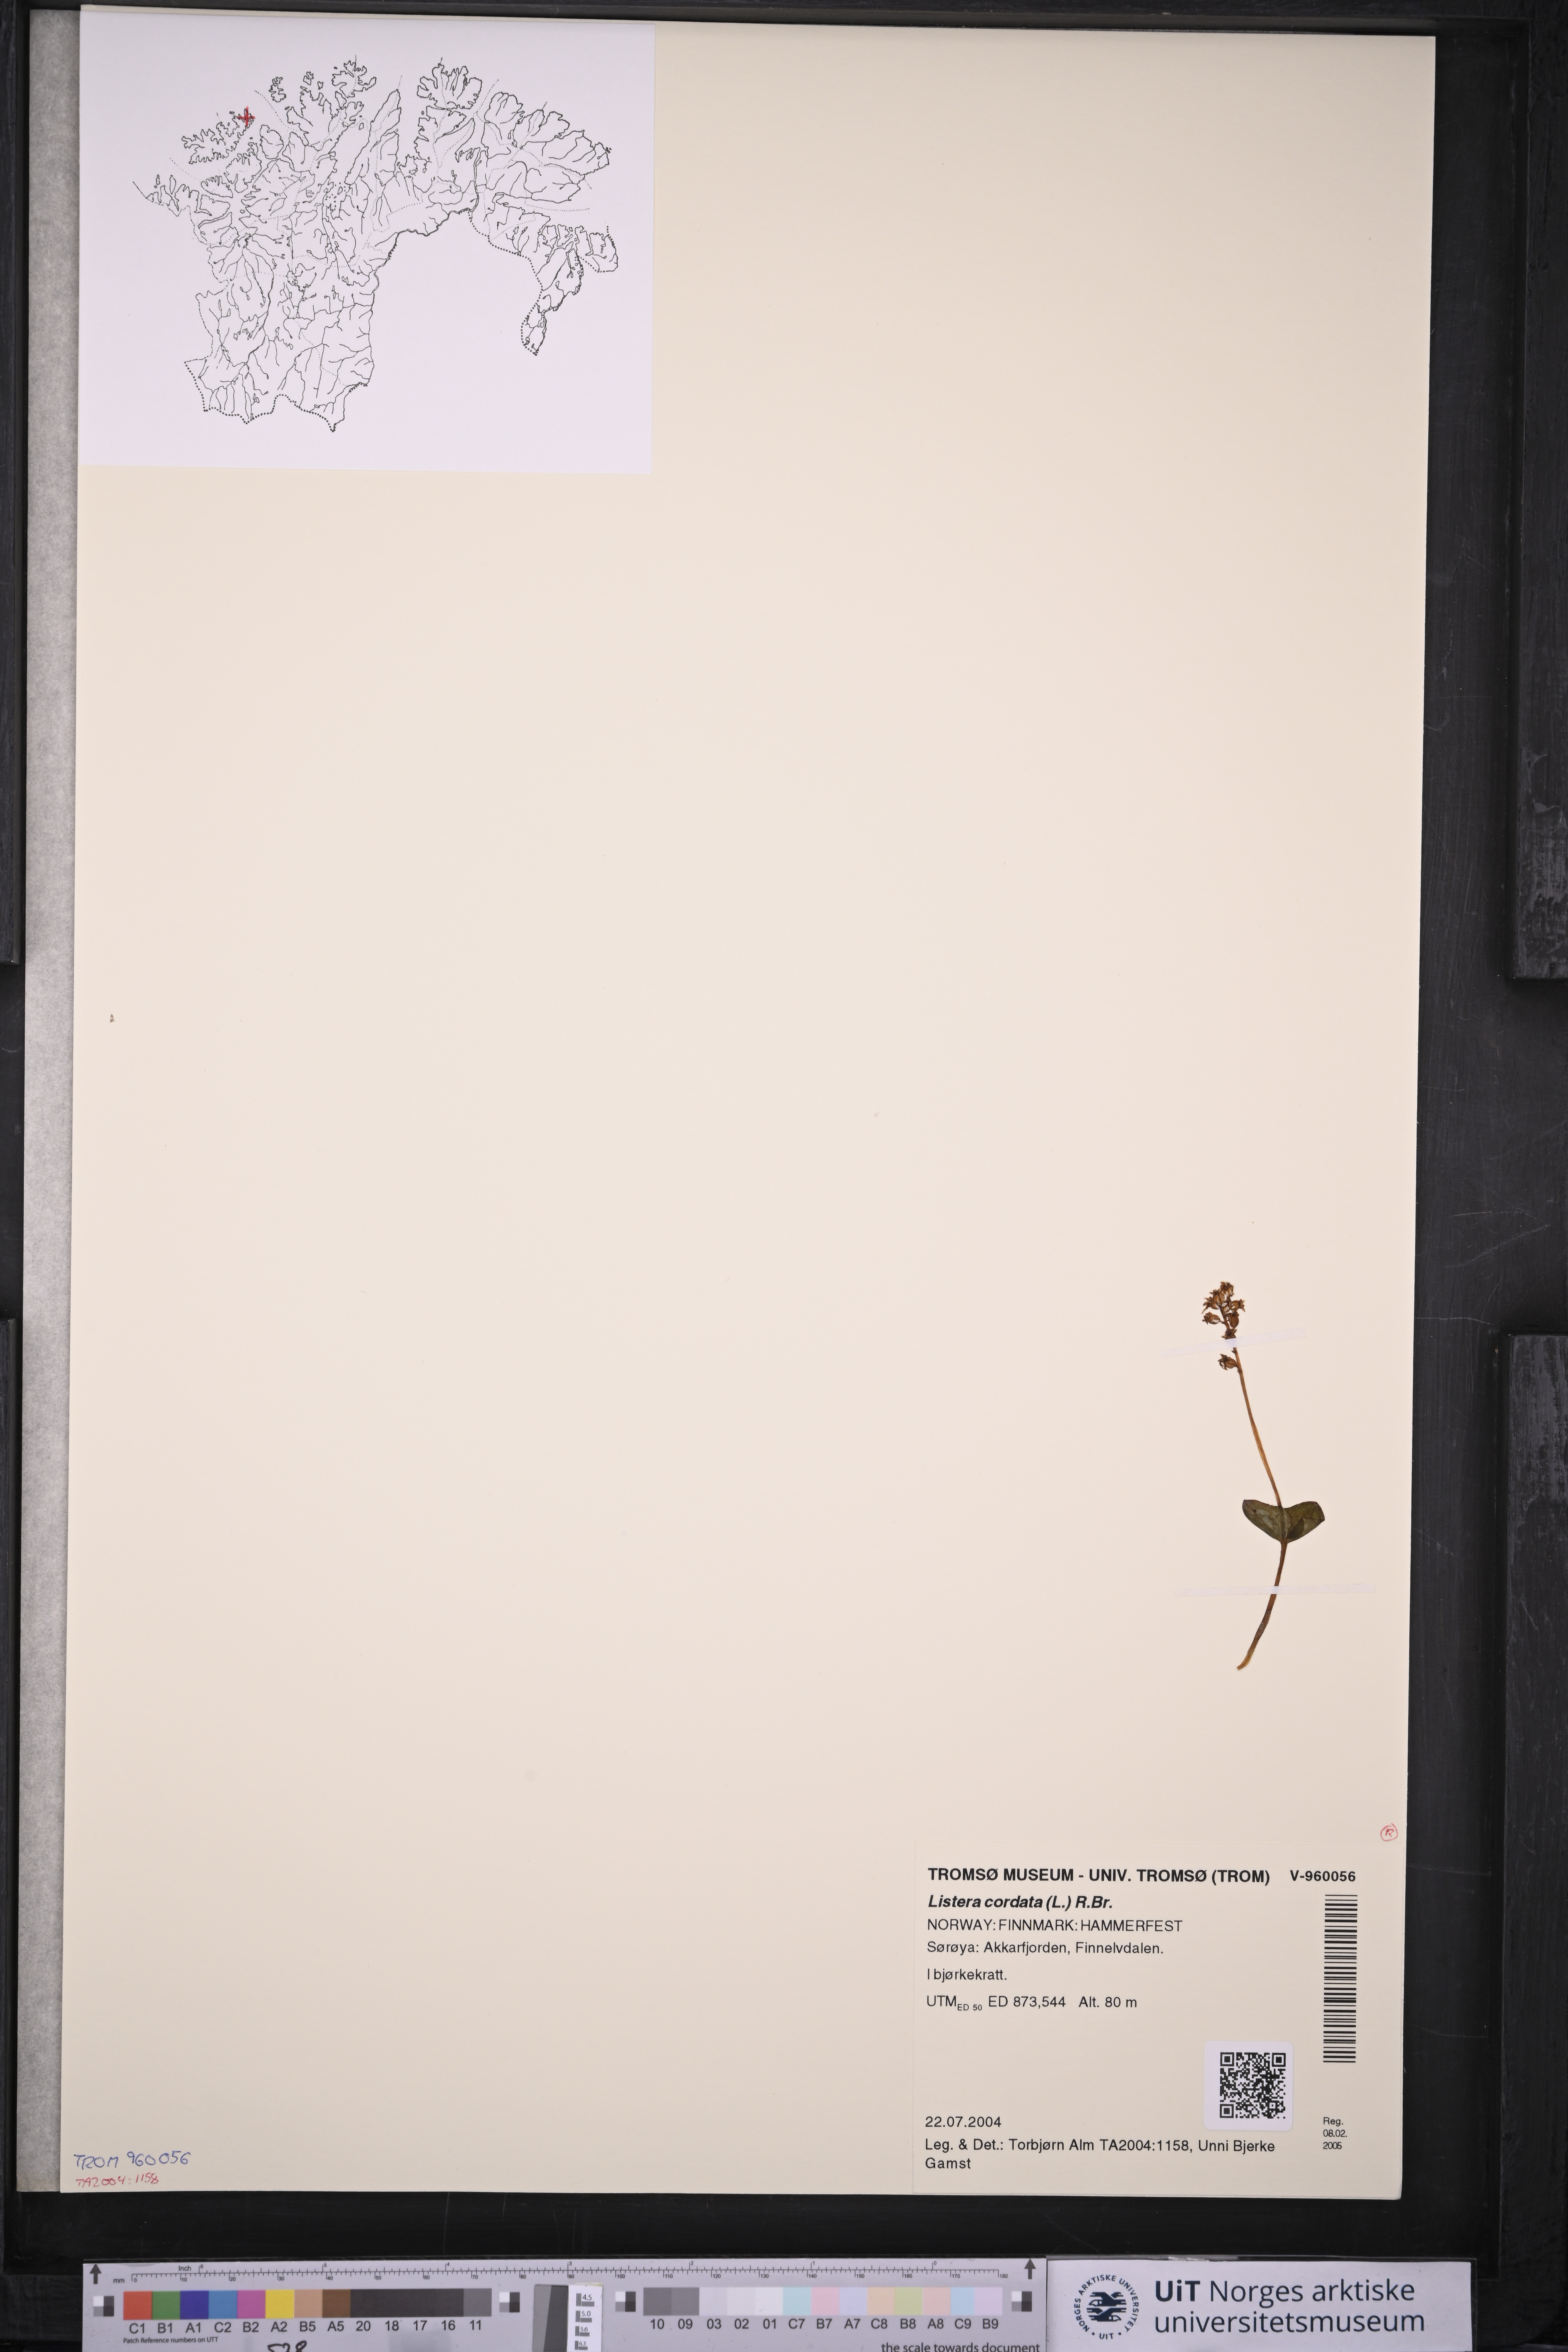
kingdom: Plantae
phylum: Tracheophyta
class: Liliopsida
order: Asparagales
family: Orchidaceae
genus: Neottia
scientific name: Neottia cordata
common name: Lesser twayblade
